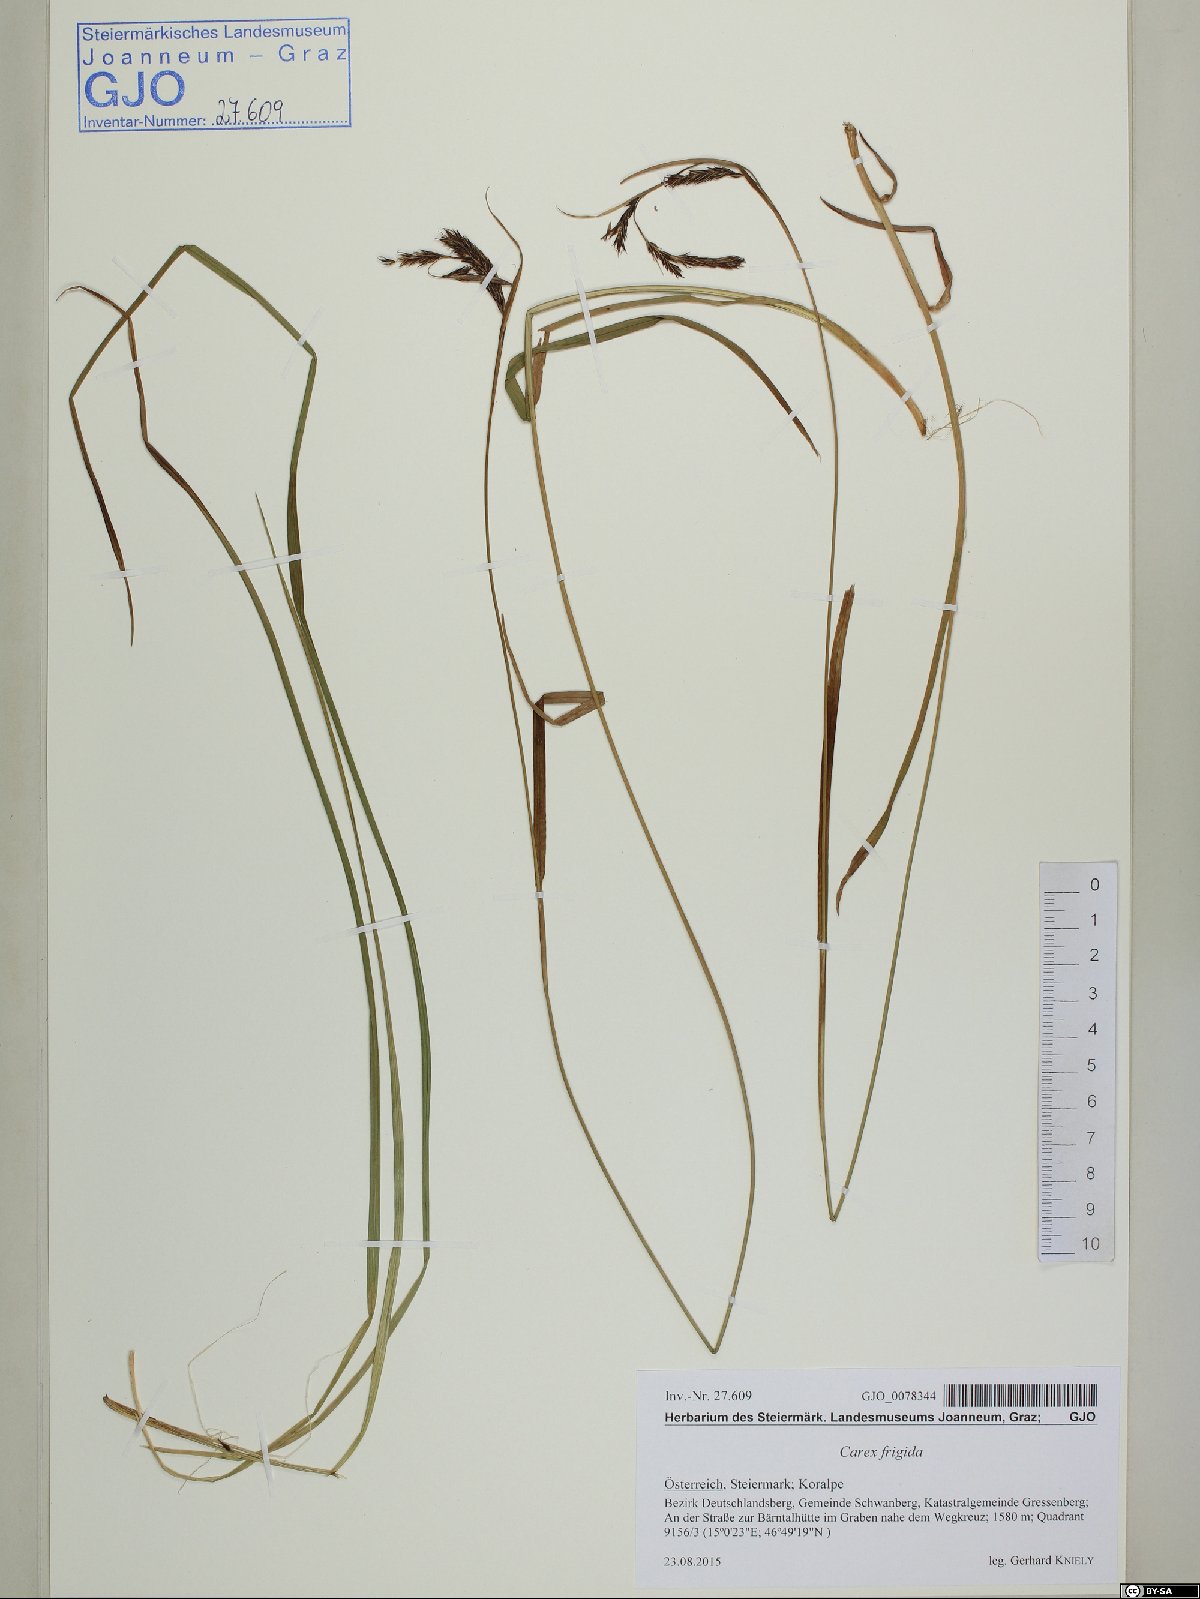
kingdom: Plantae
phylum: Tracheophyta
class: Liliopsida
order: Poales
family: Cyperaceae
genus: Carex
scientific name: Carex frigida
